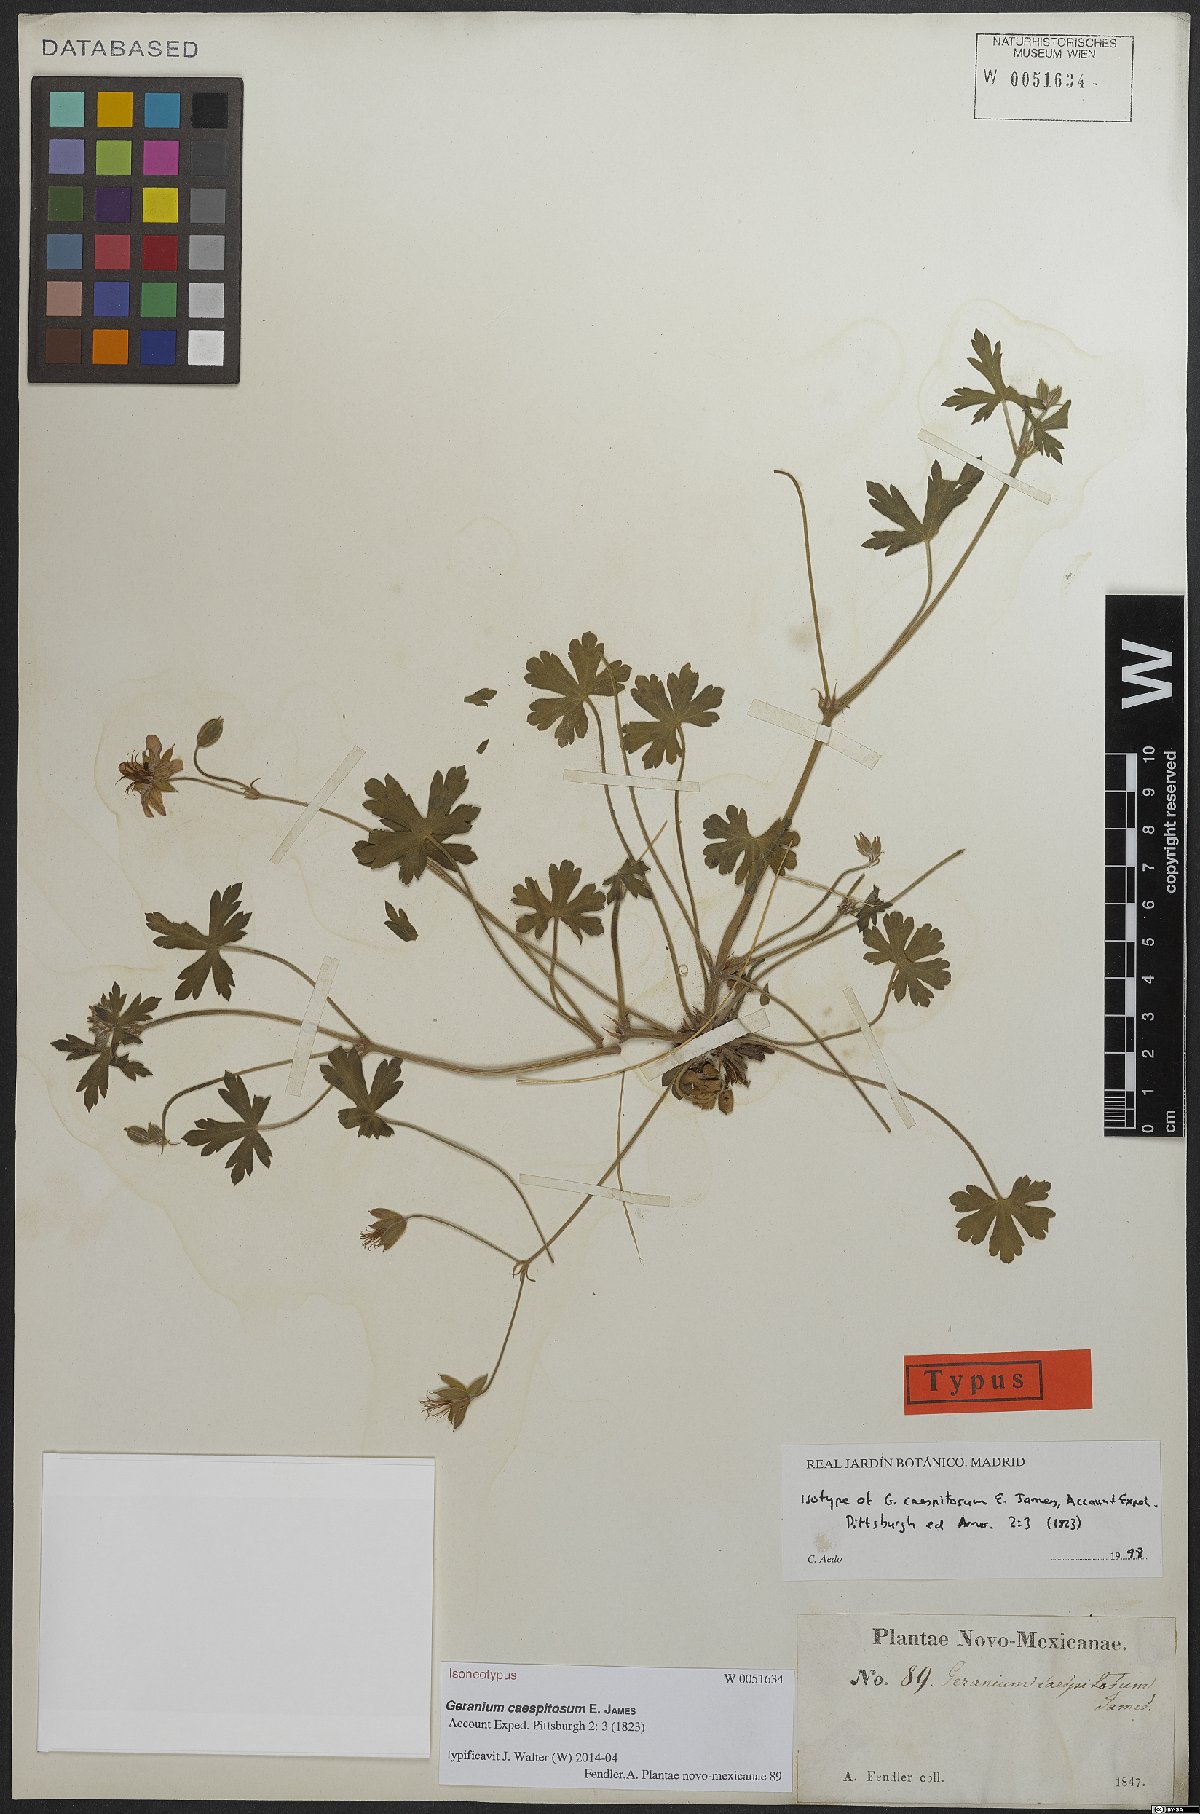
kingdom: Plantae
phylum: Tracheophyta
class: Magnoliopsida
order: Geraniales
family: Geraniaceae
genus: Geranium
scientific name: Geranium caespitosum
